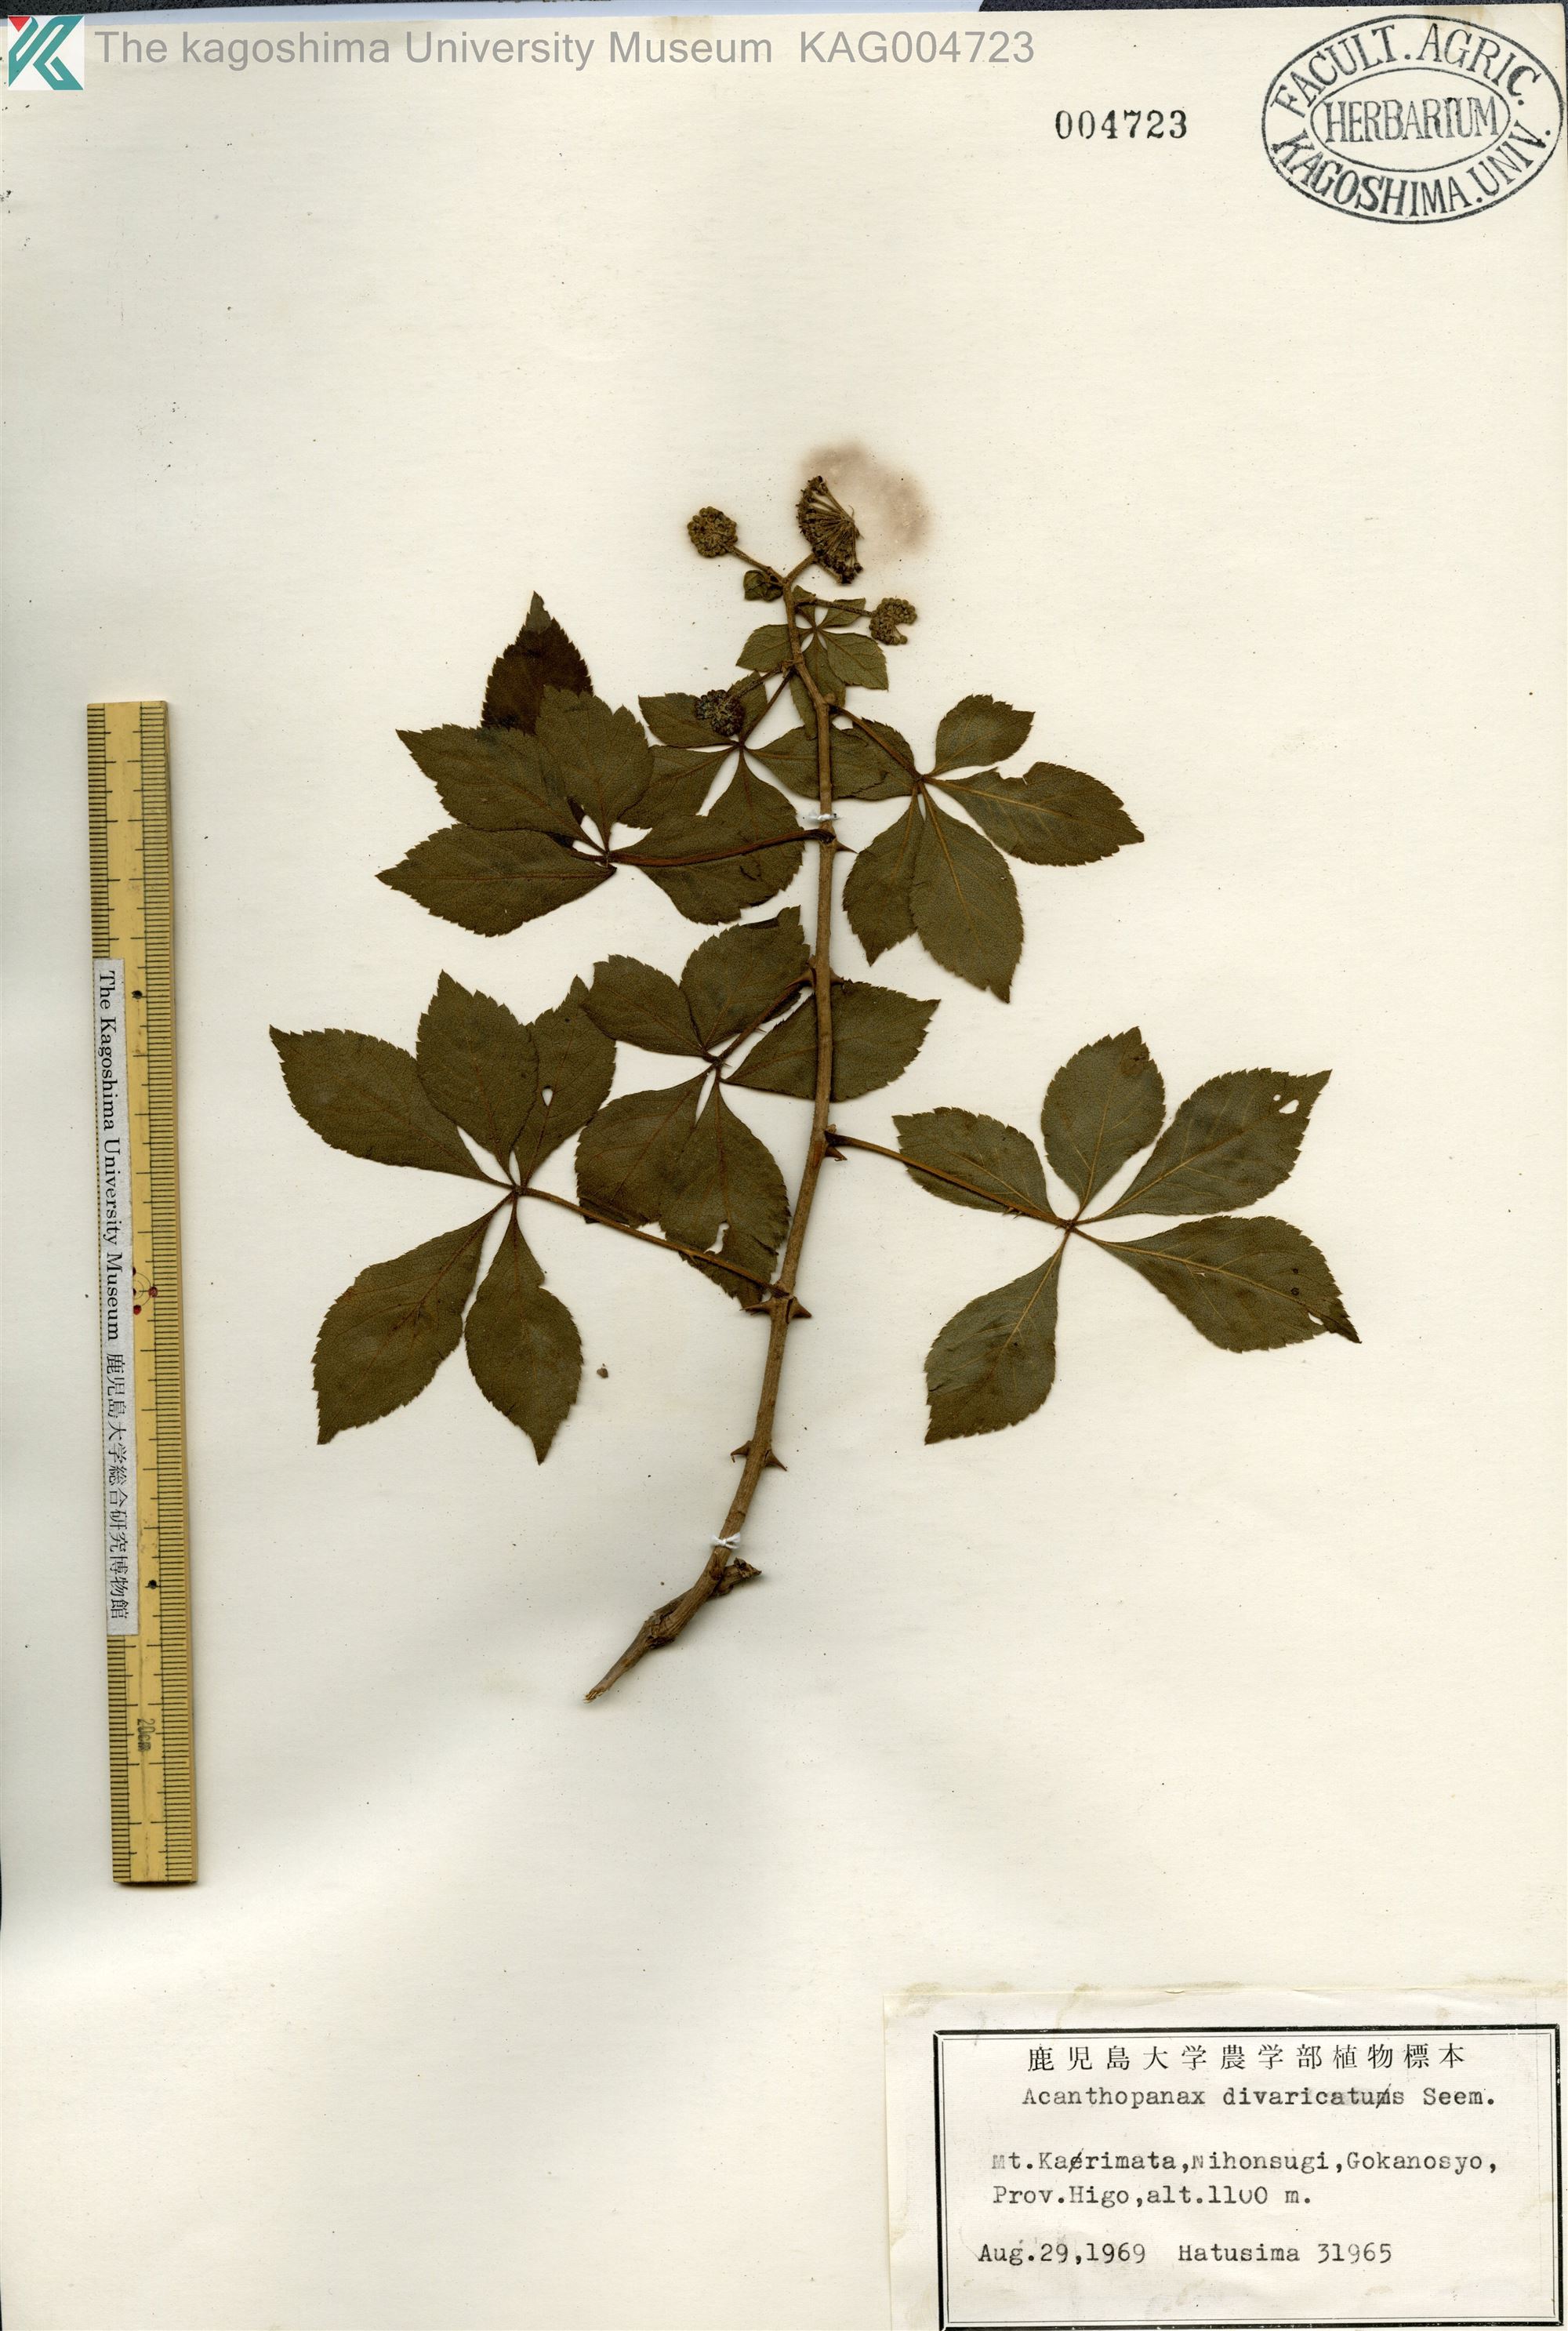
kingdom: Plantae
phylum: Tracheophyta
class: Magnoliopsida
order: Apiales
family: Araliaceae
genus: Eleutherococcus
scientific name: Eleutherococcus divaricatus
